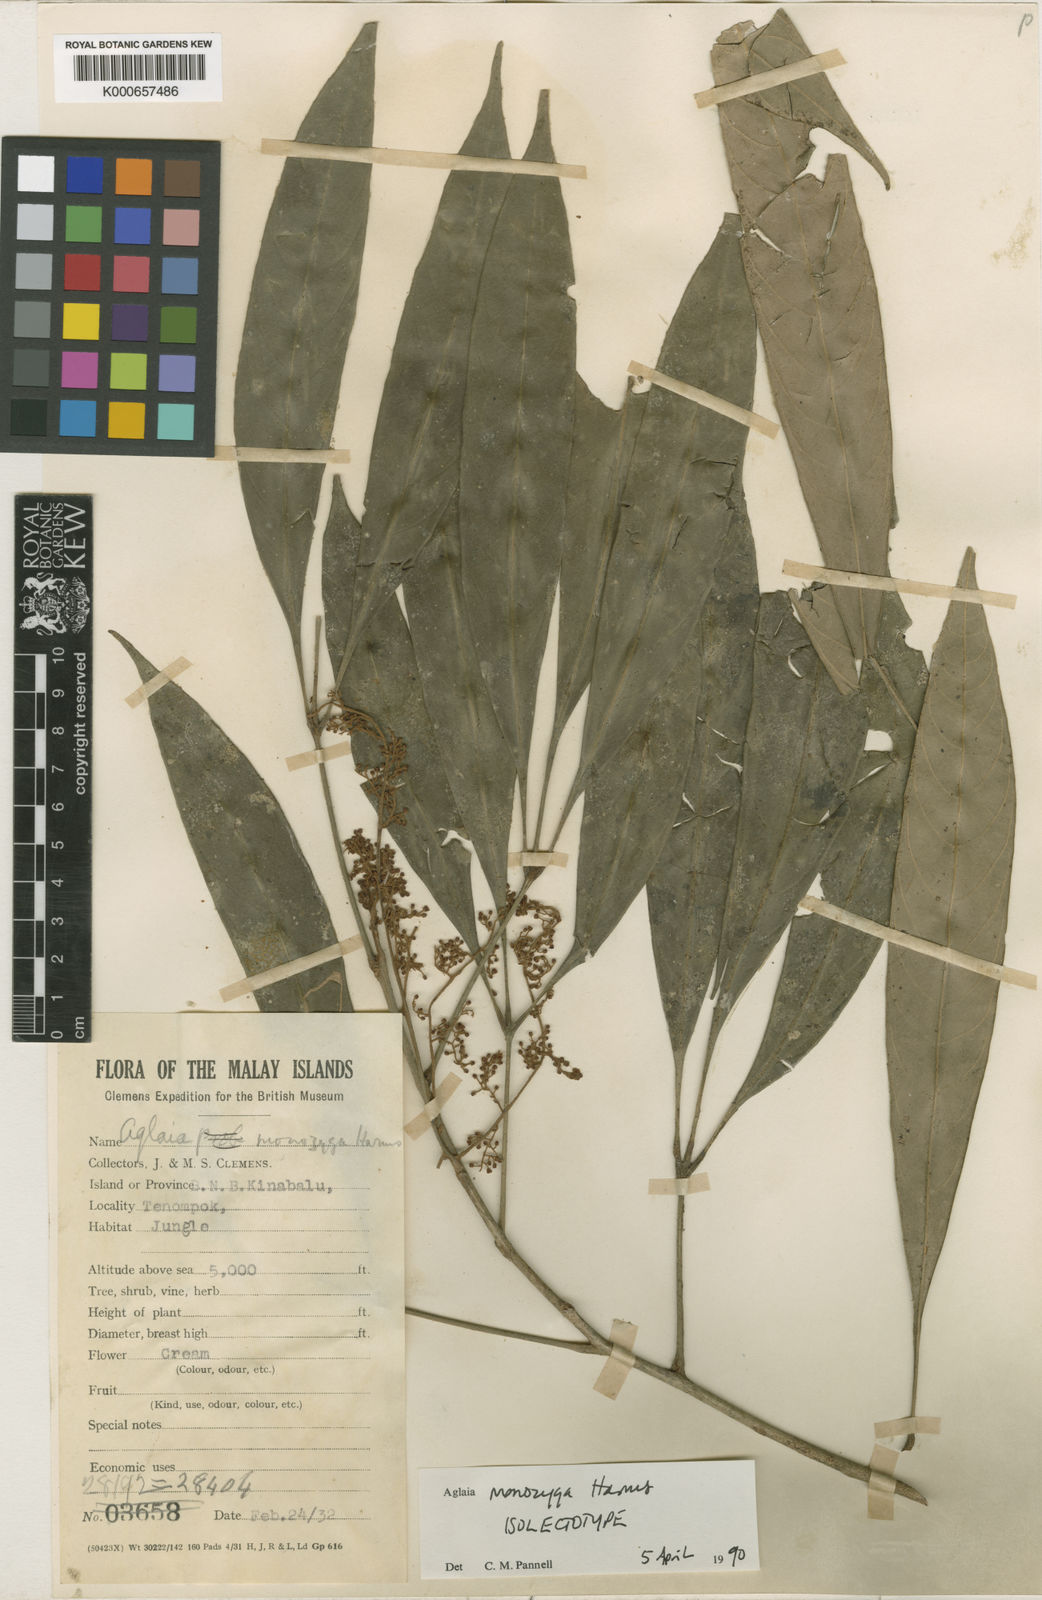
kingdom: Plantae
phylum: Tracheophyta
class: Magnoliopsida
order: Sapindales
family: Meliaceae
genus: Aglaia
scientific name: Aglaia monozyga
